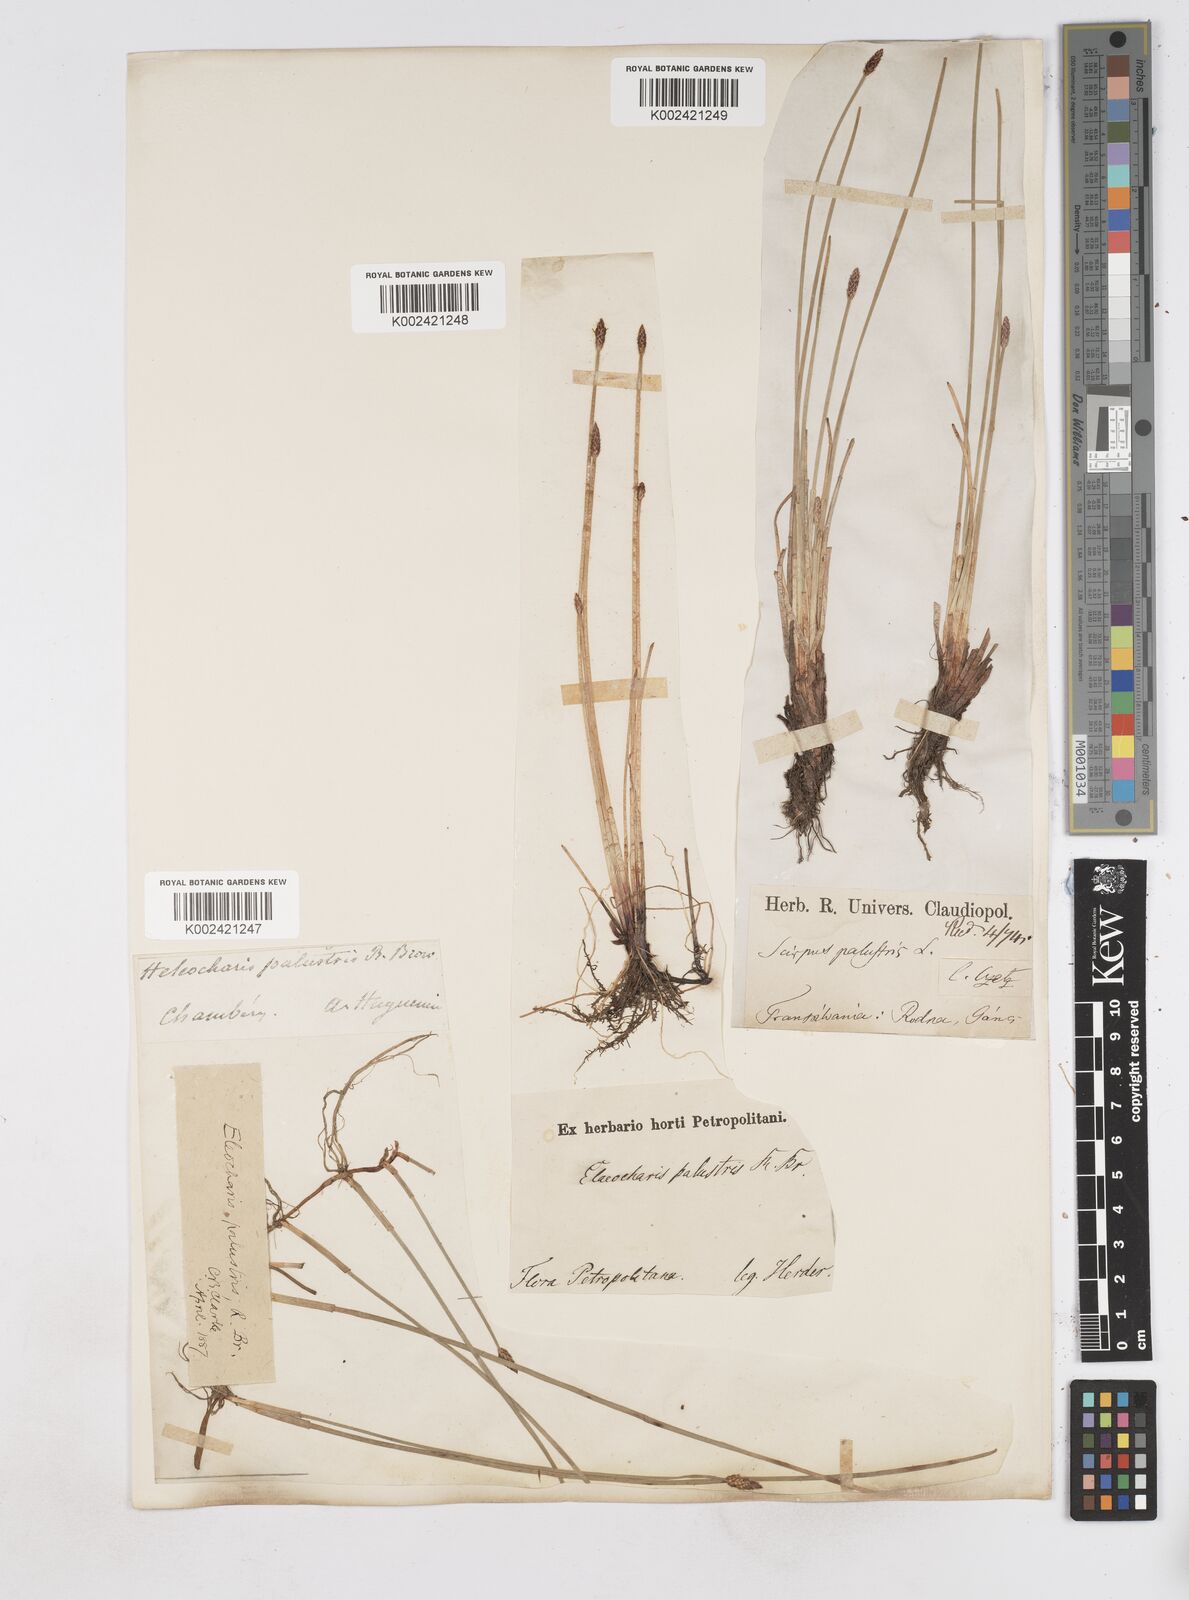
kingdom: Plantae
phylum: Tracheophyta
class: Liliopsida
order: Poales
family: Cyperaceae
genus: Eleocharis
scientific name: Eleocharis palustris
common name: Common spike-rush
